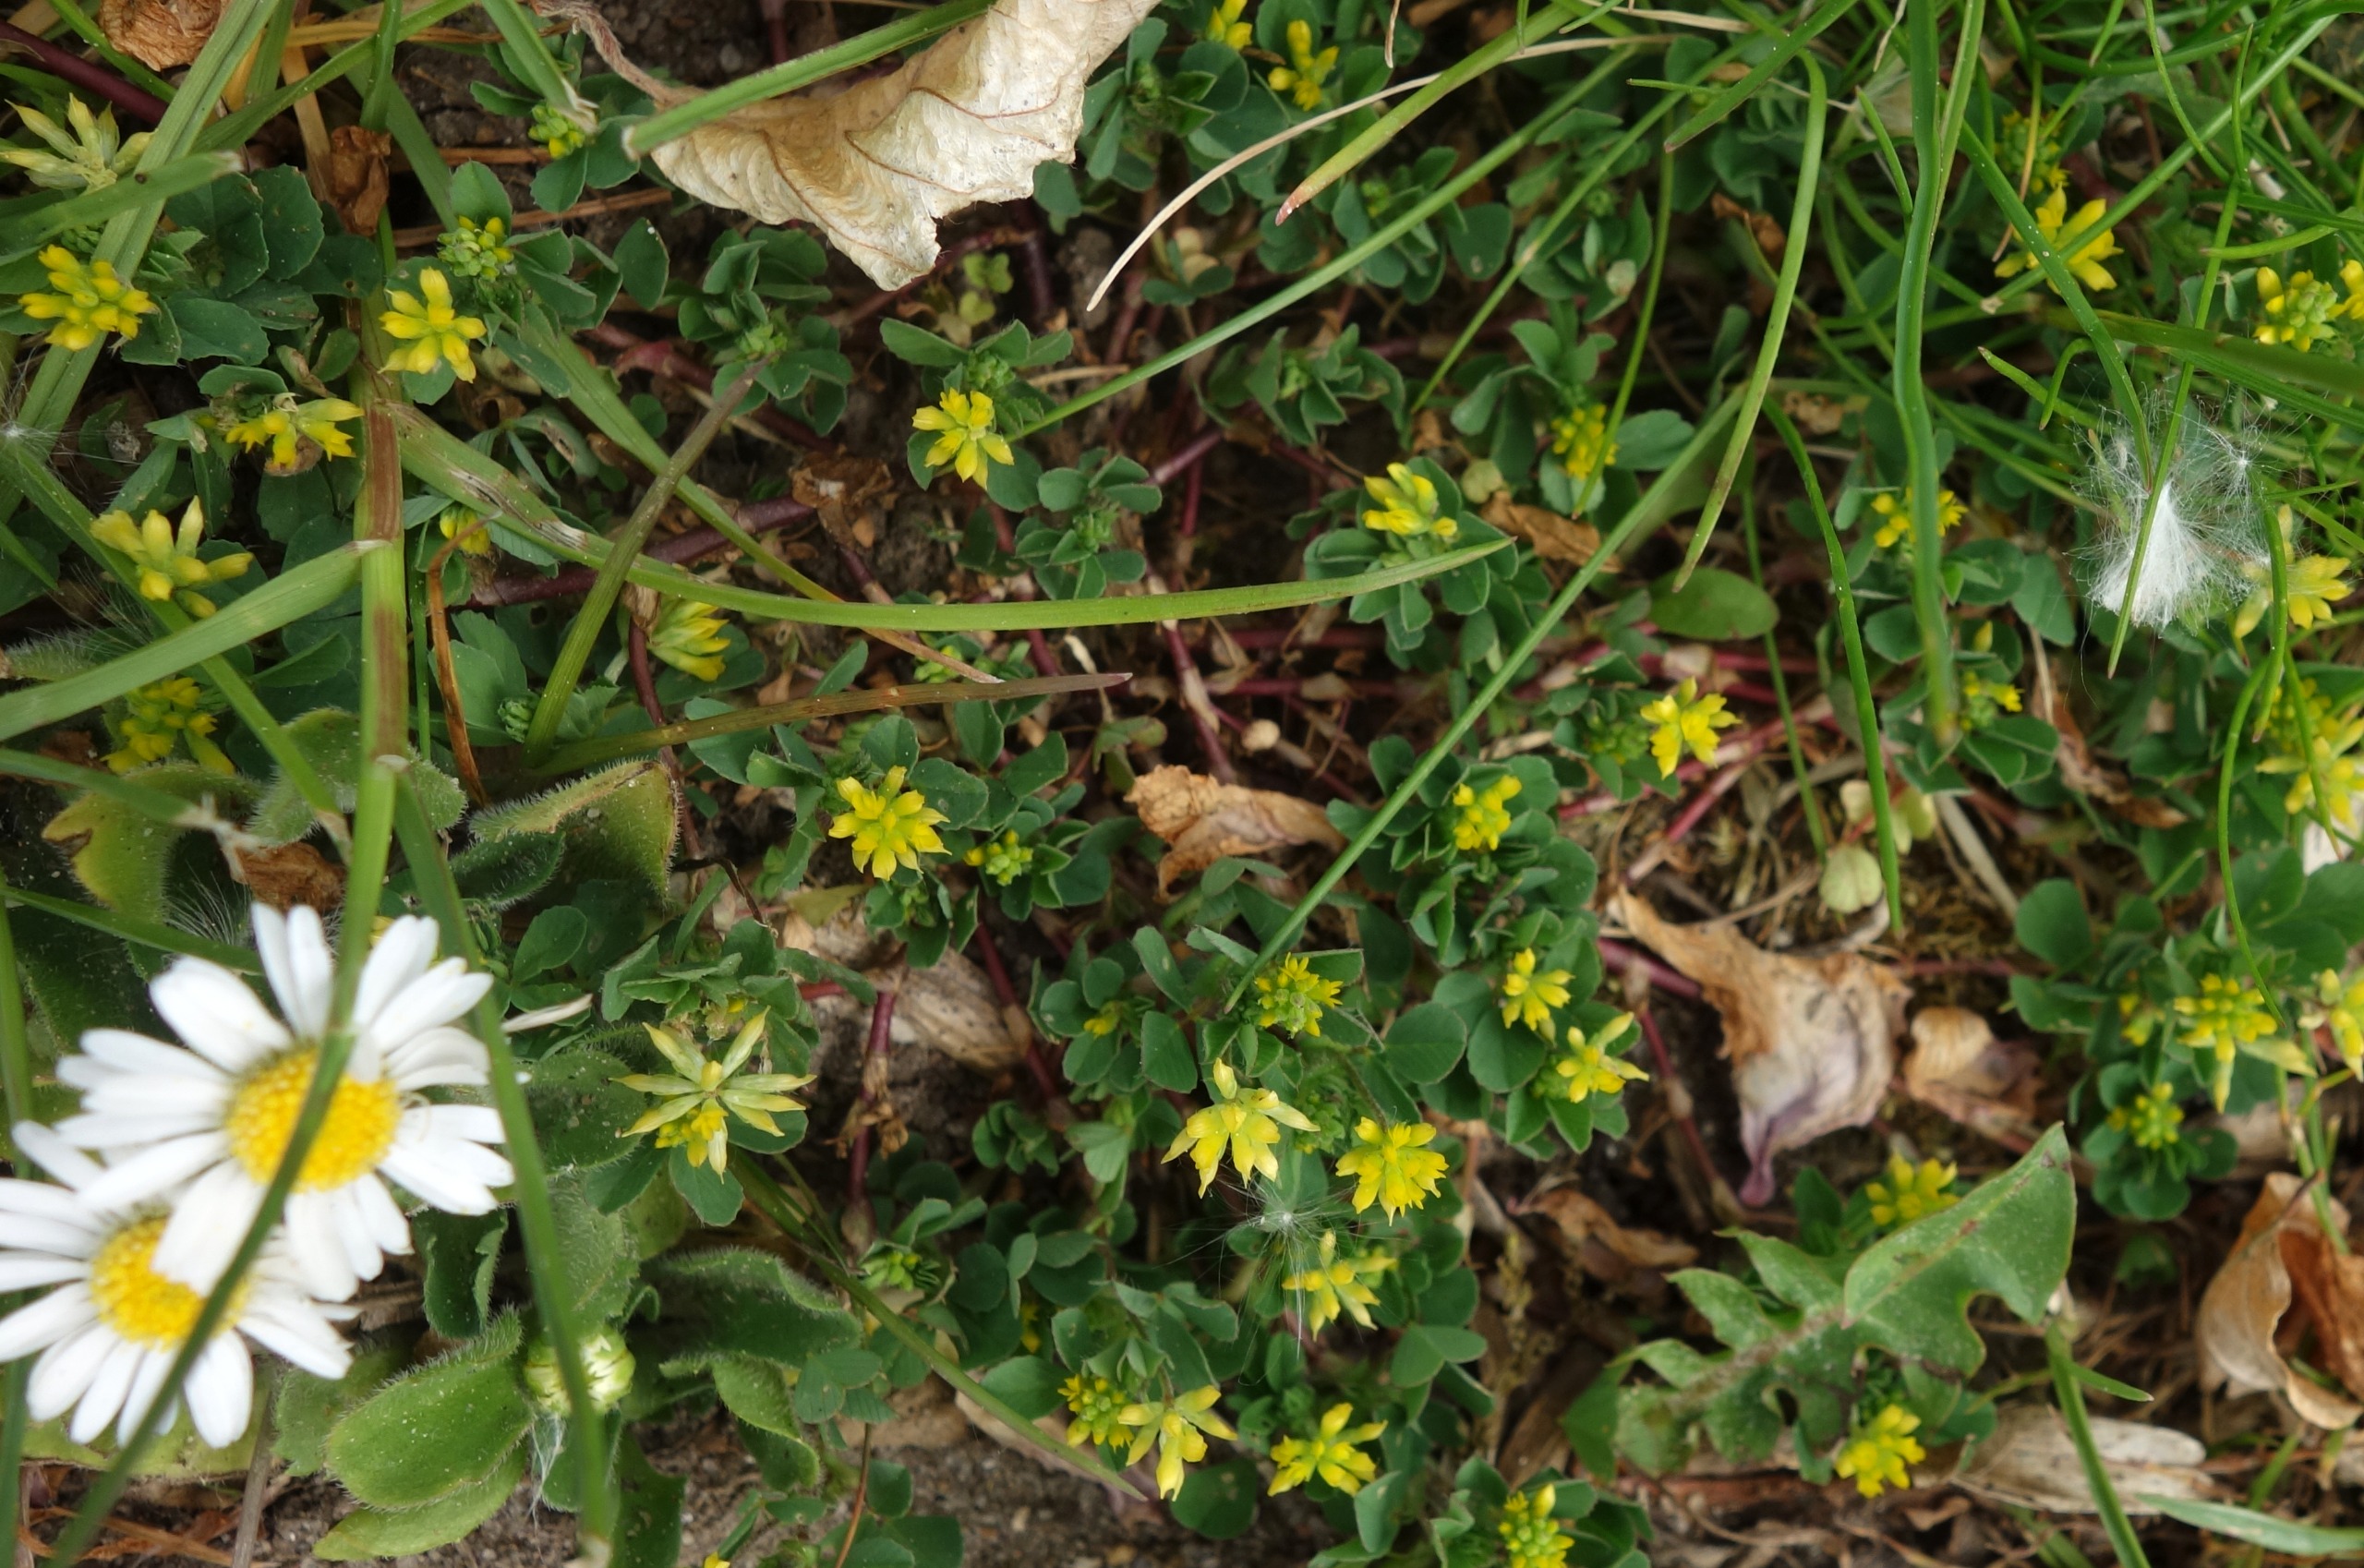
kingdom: Plantae
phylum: Tracheophyta
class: Magnoliopsida
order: Fabales
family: Fabaceae
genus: Trifolium
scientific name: Trifolium dubium
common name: Fin kløver
